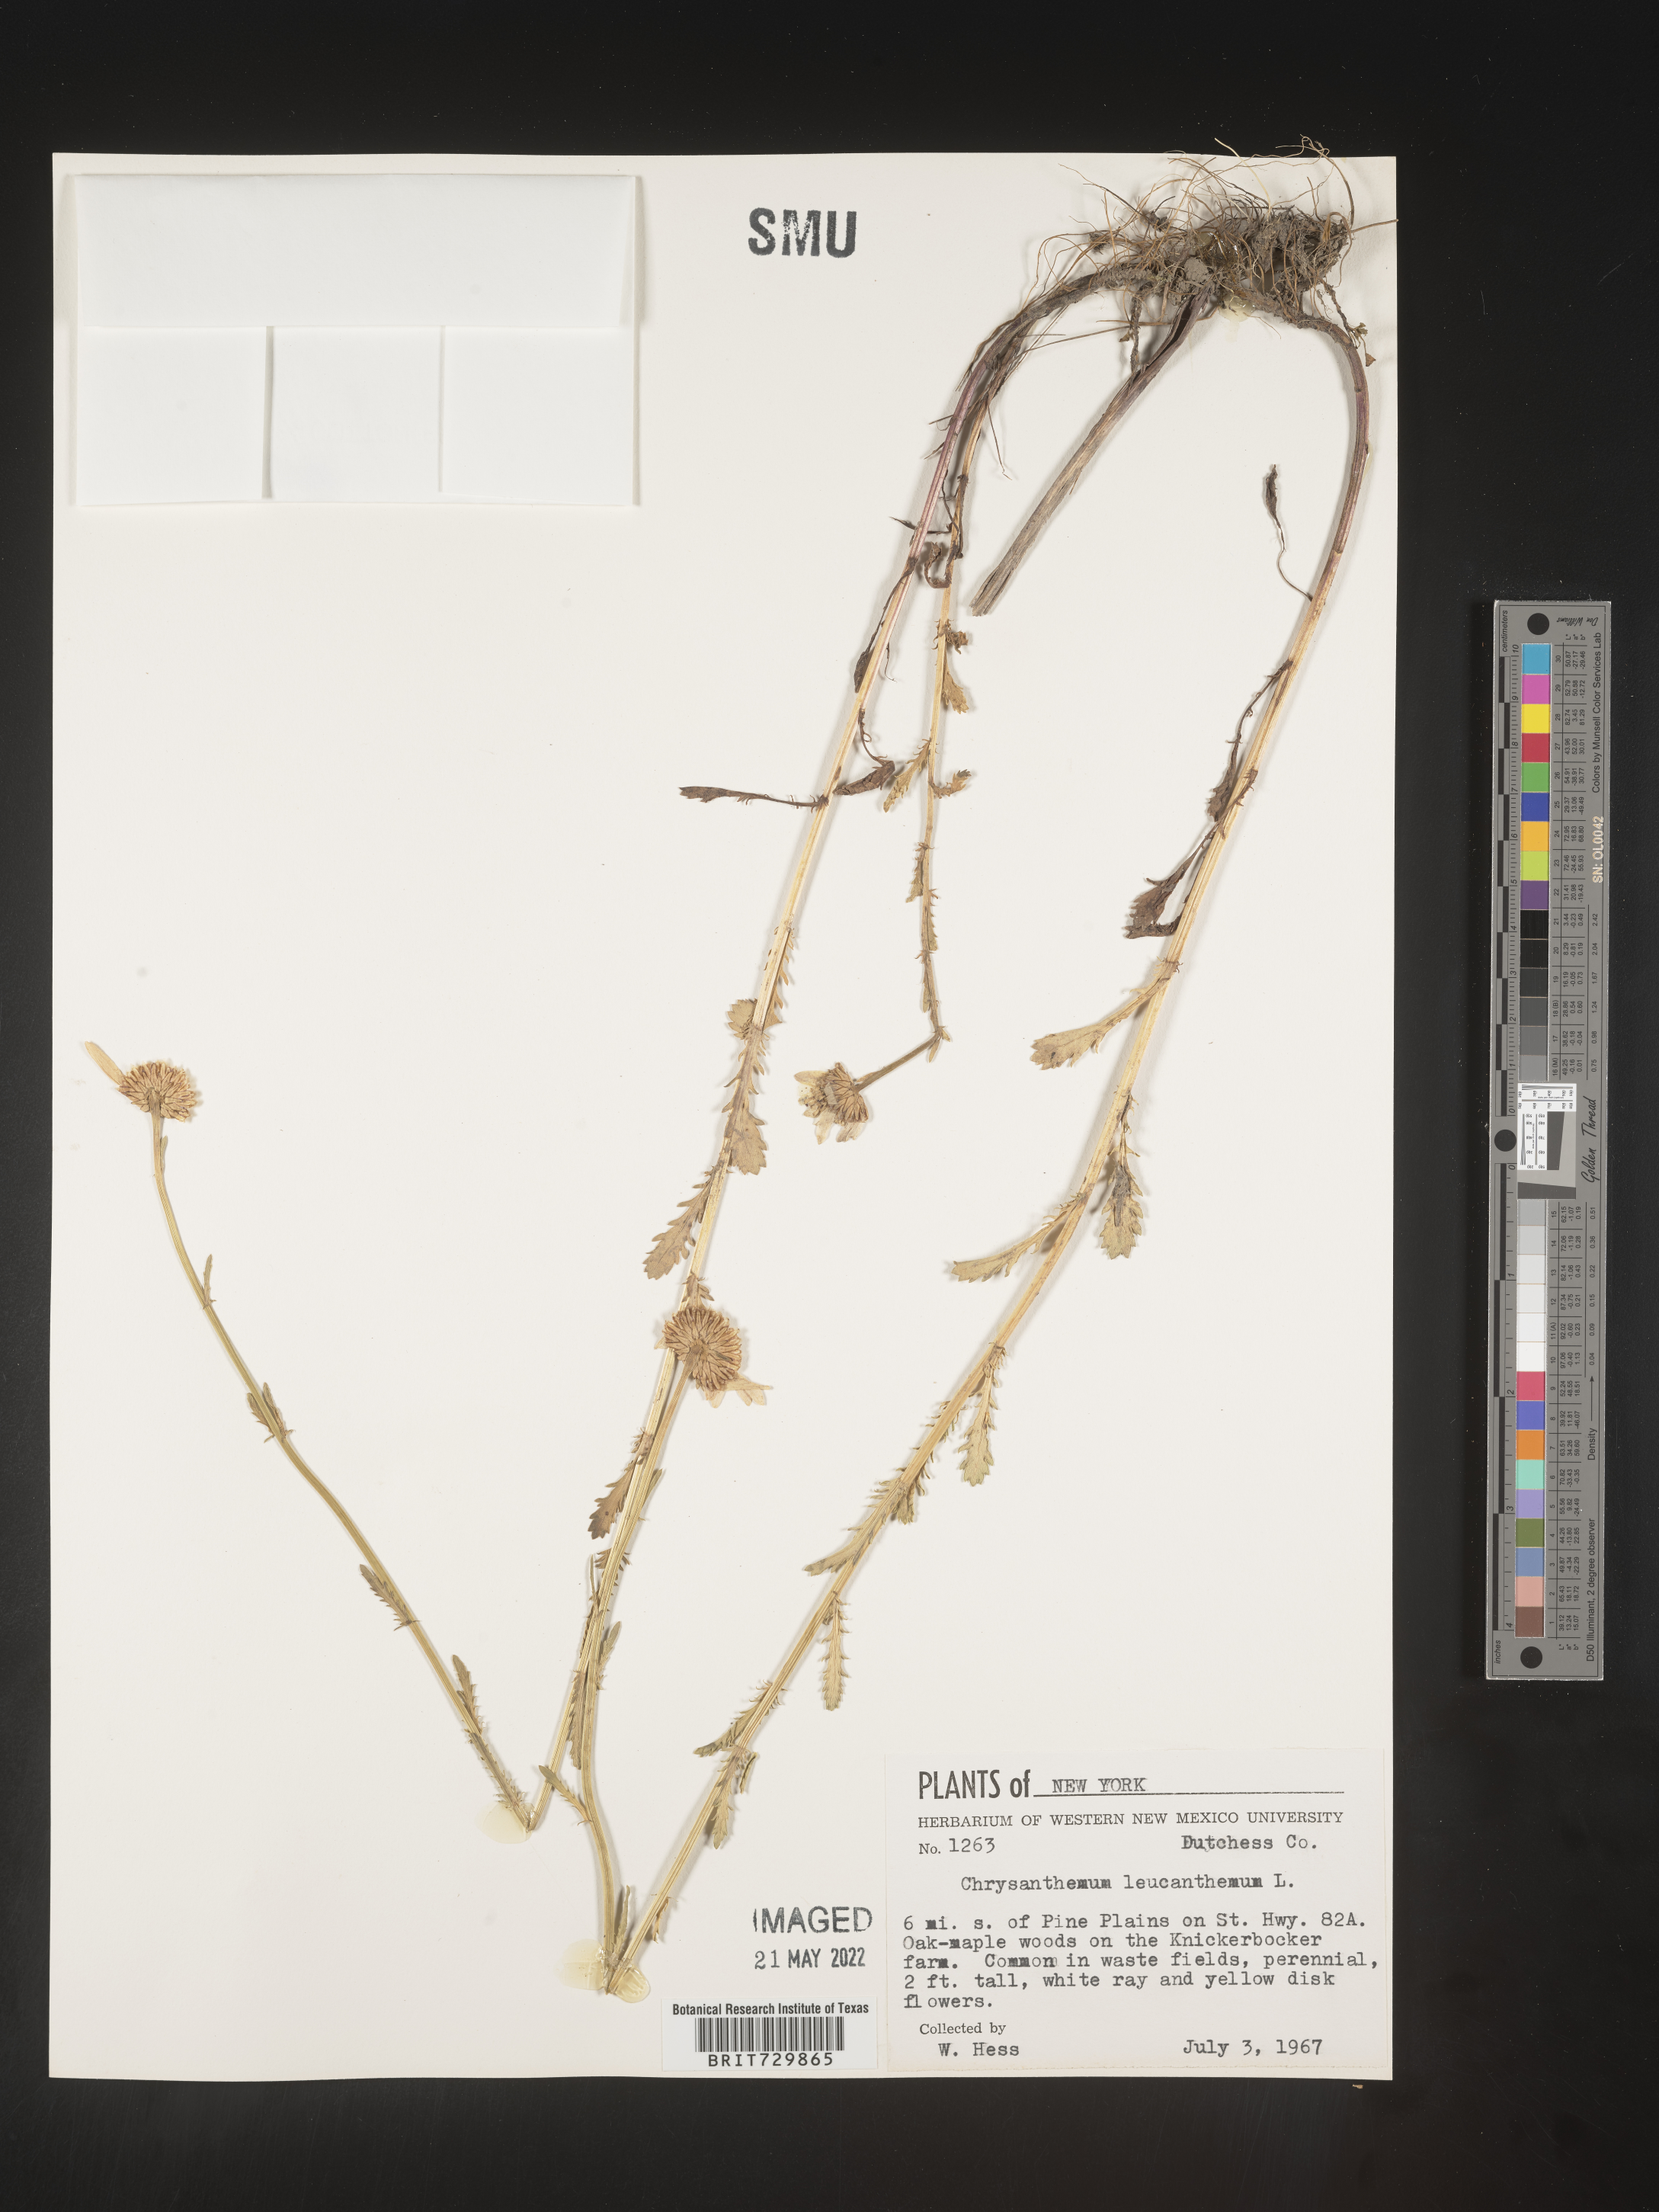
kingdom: Plantae
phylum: Tracheophyta
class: Magnoliopsida
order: Asterales
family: Asteraceae
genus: Leucanthemum
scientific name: Leucanthemum vulgare
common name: Oxeye daisy
